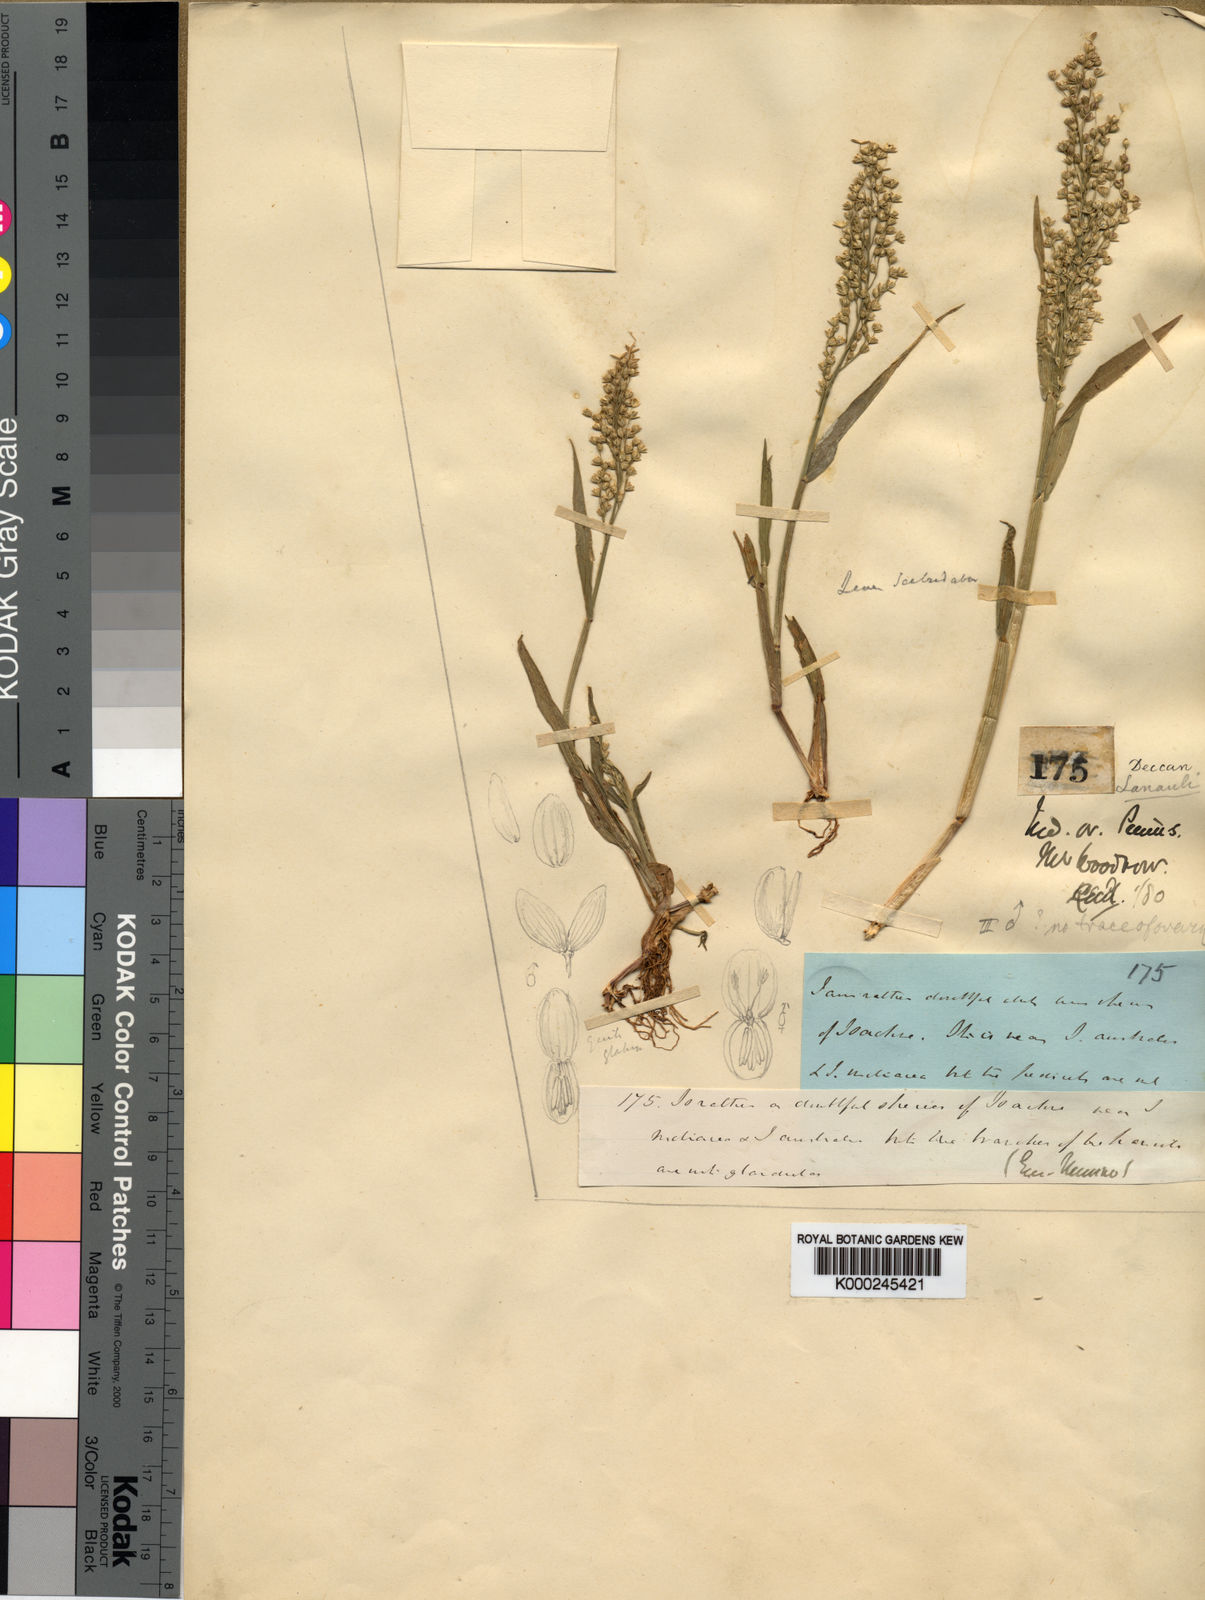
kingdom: Plantae
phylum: Tracheophyta
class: Liliopsida
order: Poales
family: Poaceae
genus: Isachne
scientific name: Isachne elegans
